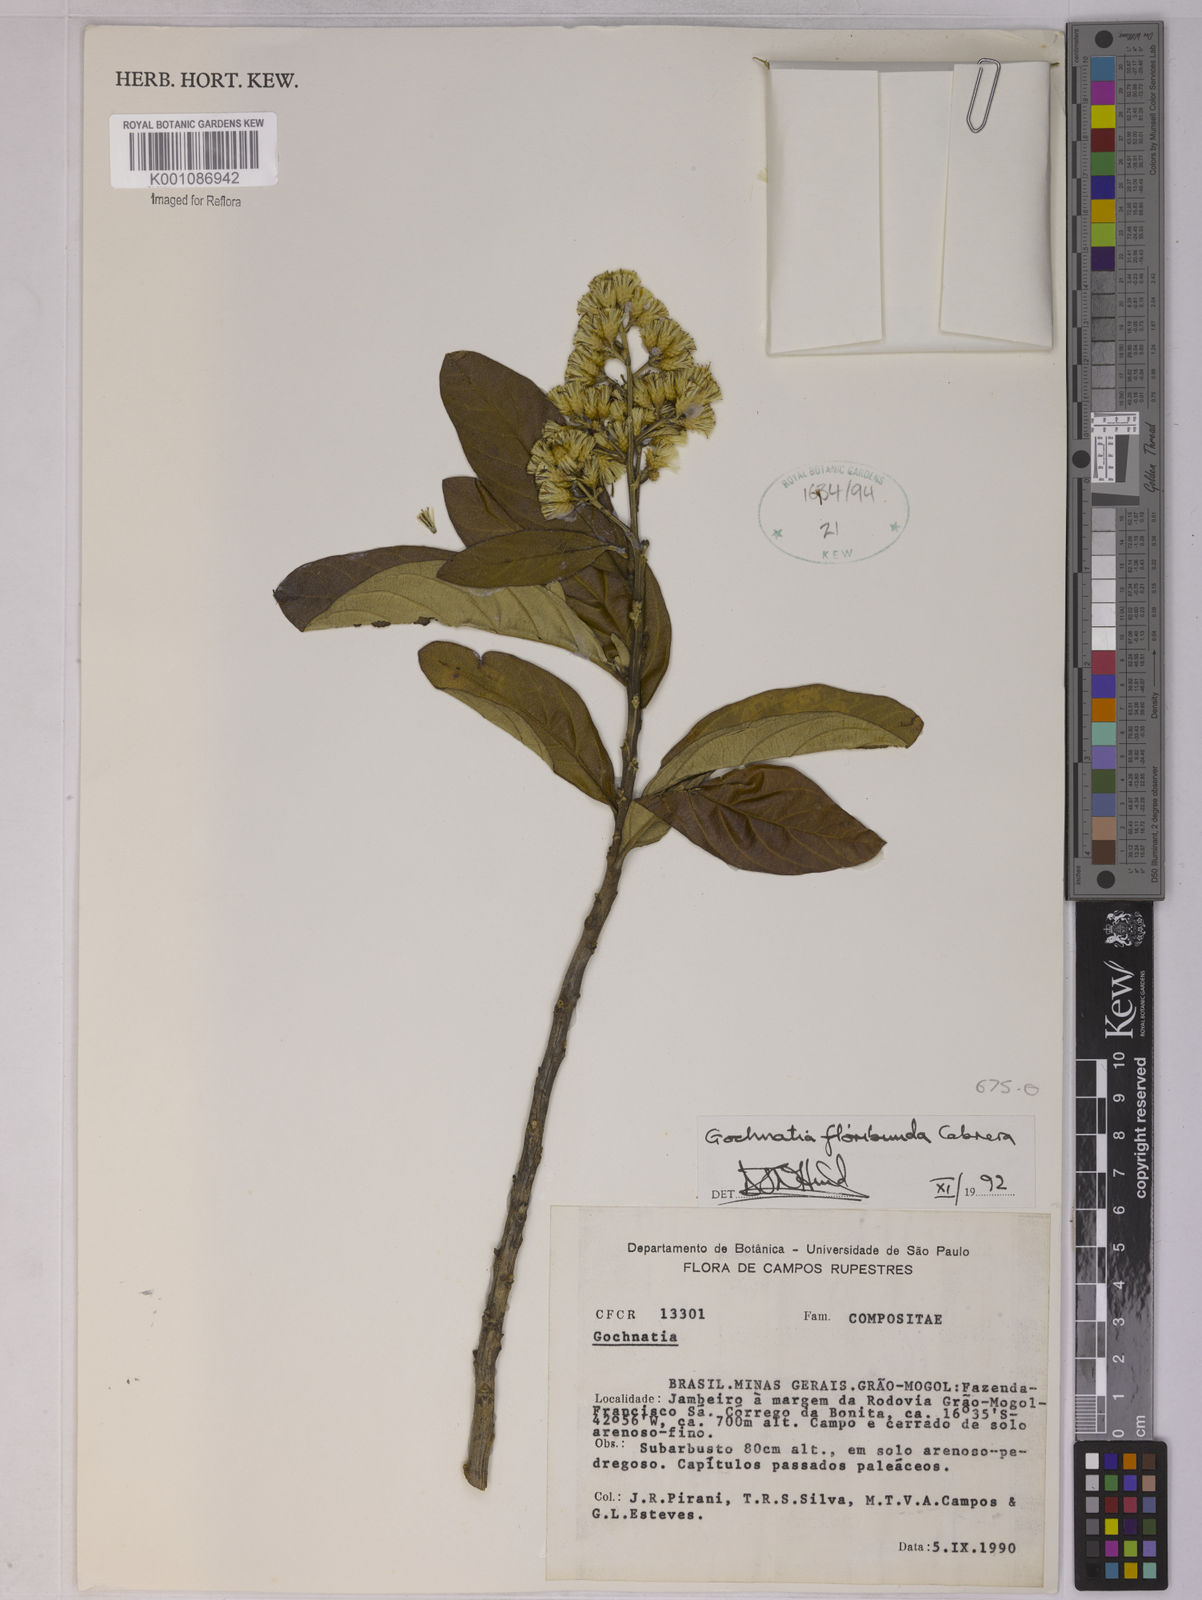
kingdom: Plantae
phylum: Tracheophyta
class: Magnoliopsida
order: Asterales
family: Asteraceae
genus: Moquiniastrum
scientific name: Moquiniastrum floribundum
